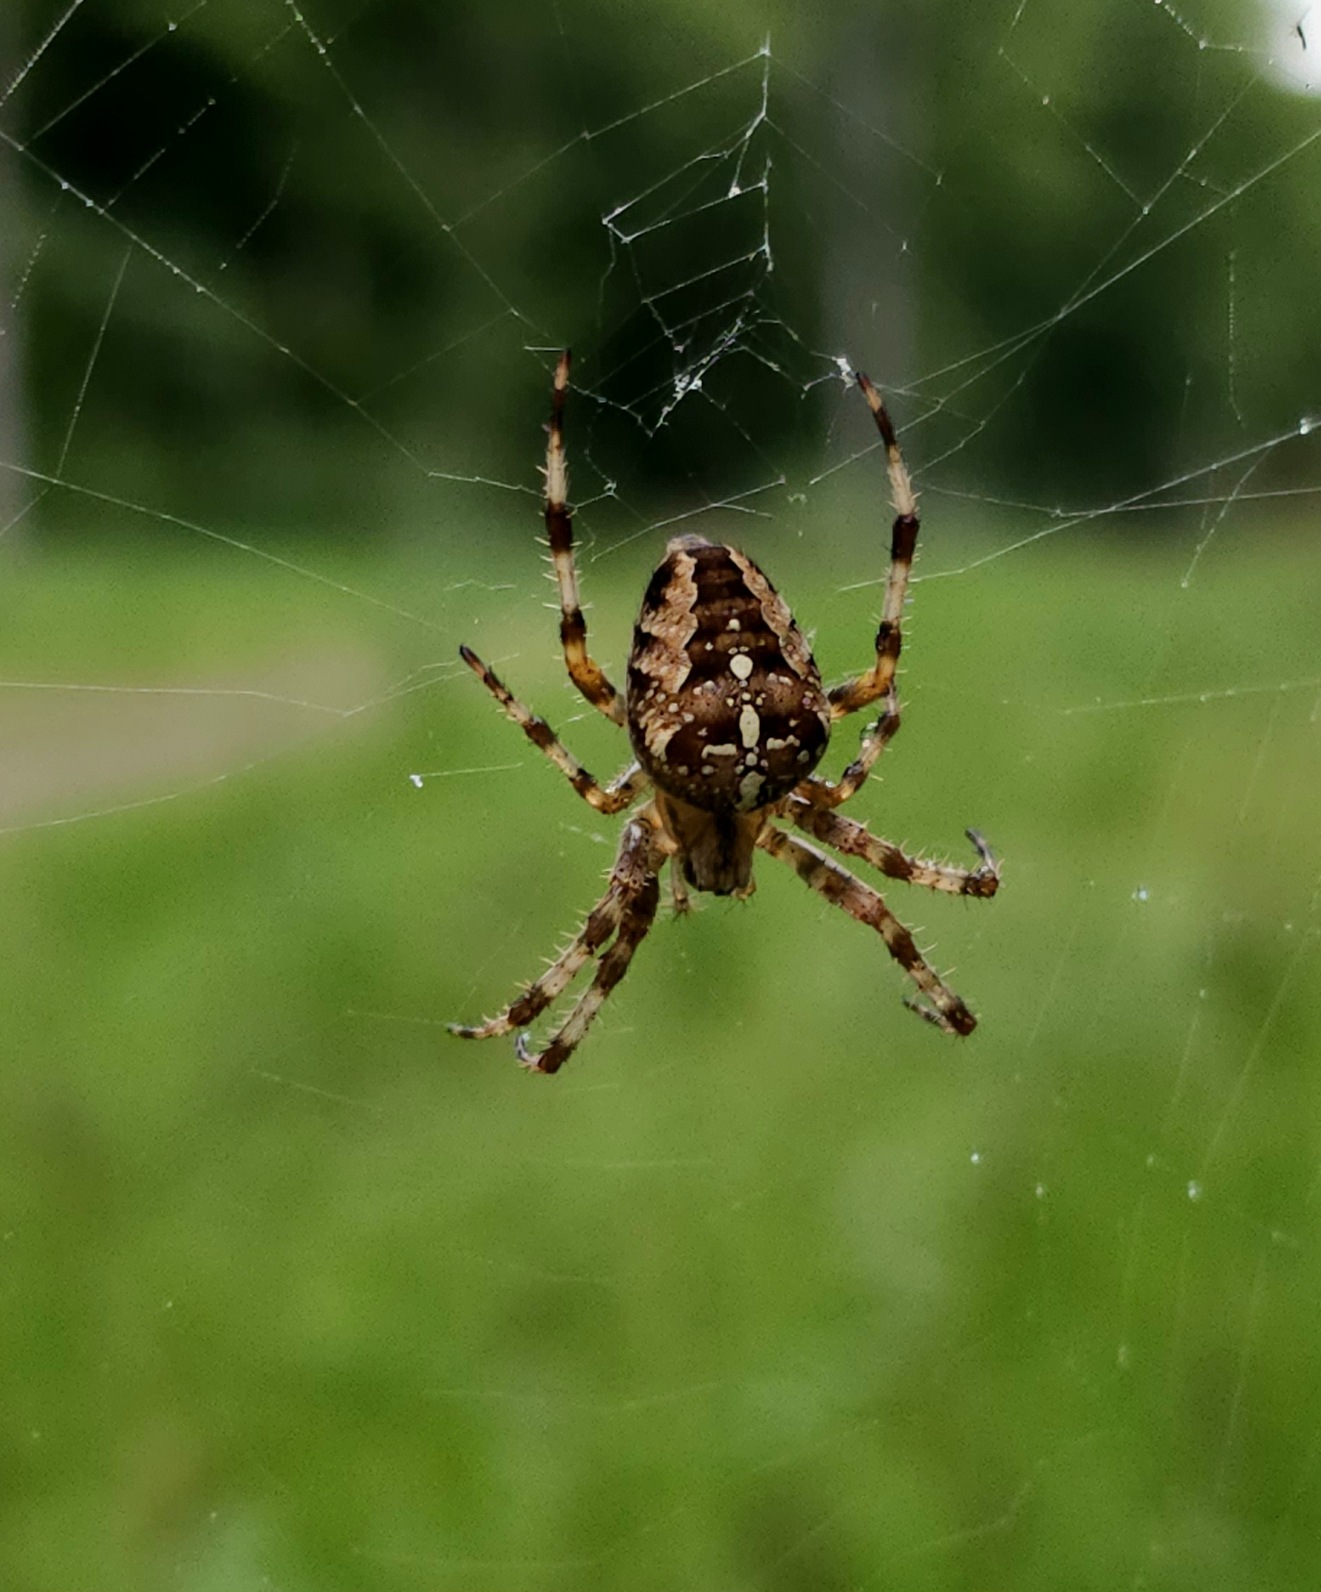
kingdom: Animalia
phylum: Arthropoda
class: Arachnida
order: Araneae
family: Araneidae
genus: Araneus
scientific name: Araneus diadematus
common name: Korsedderkop
